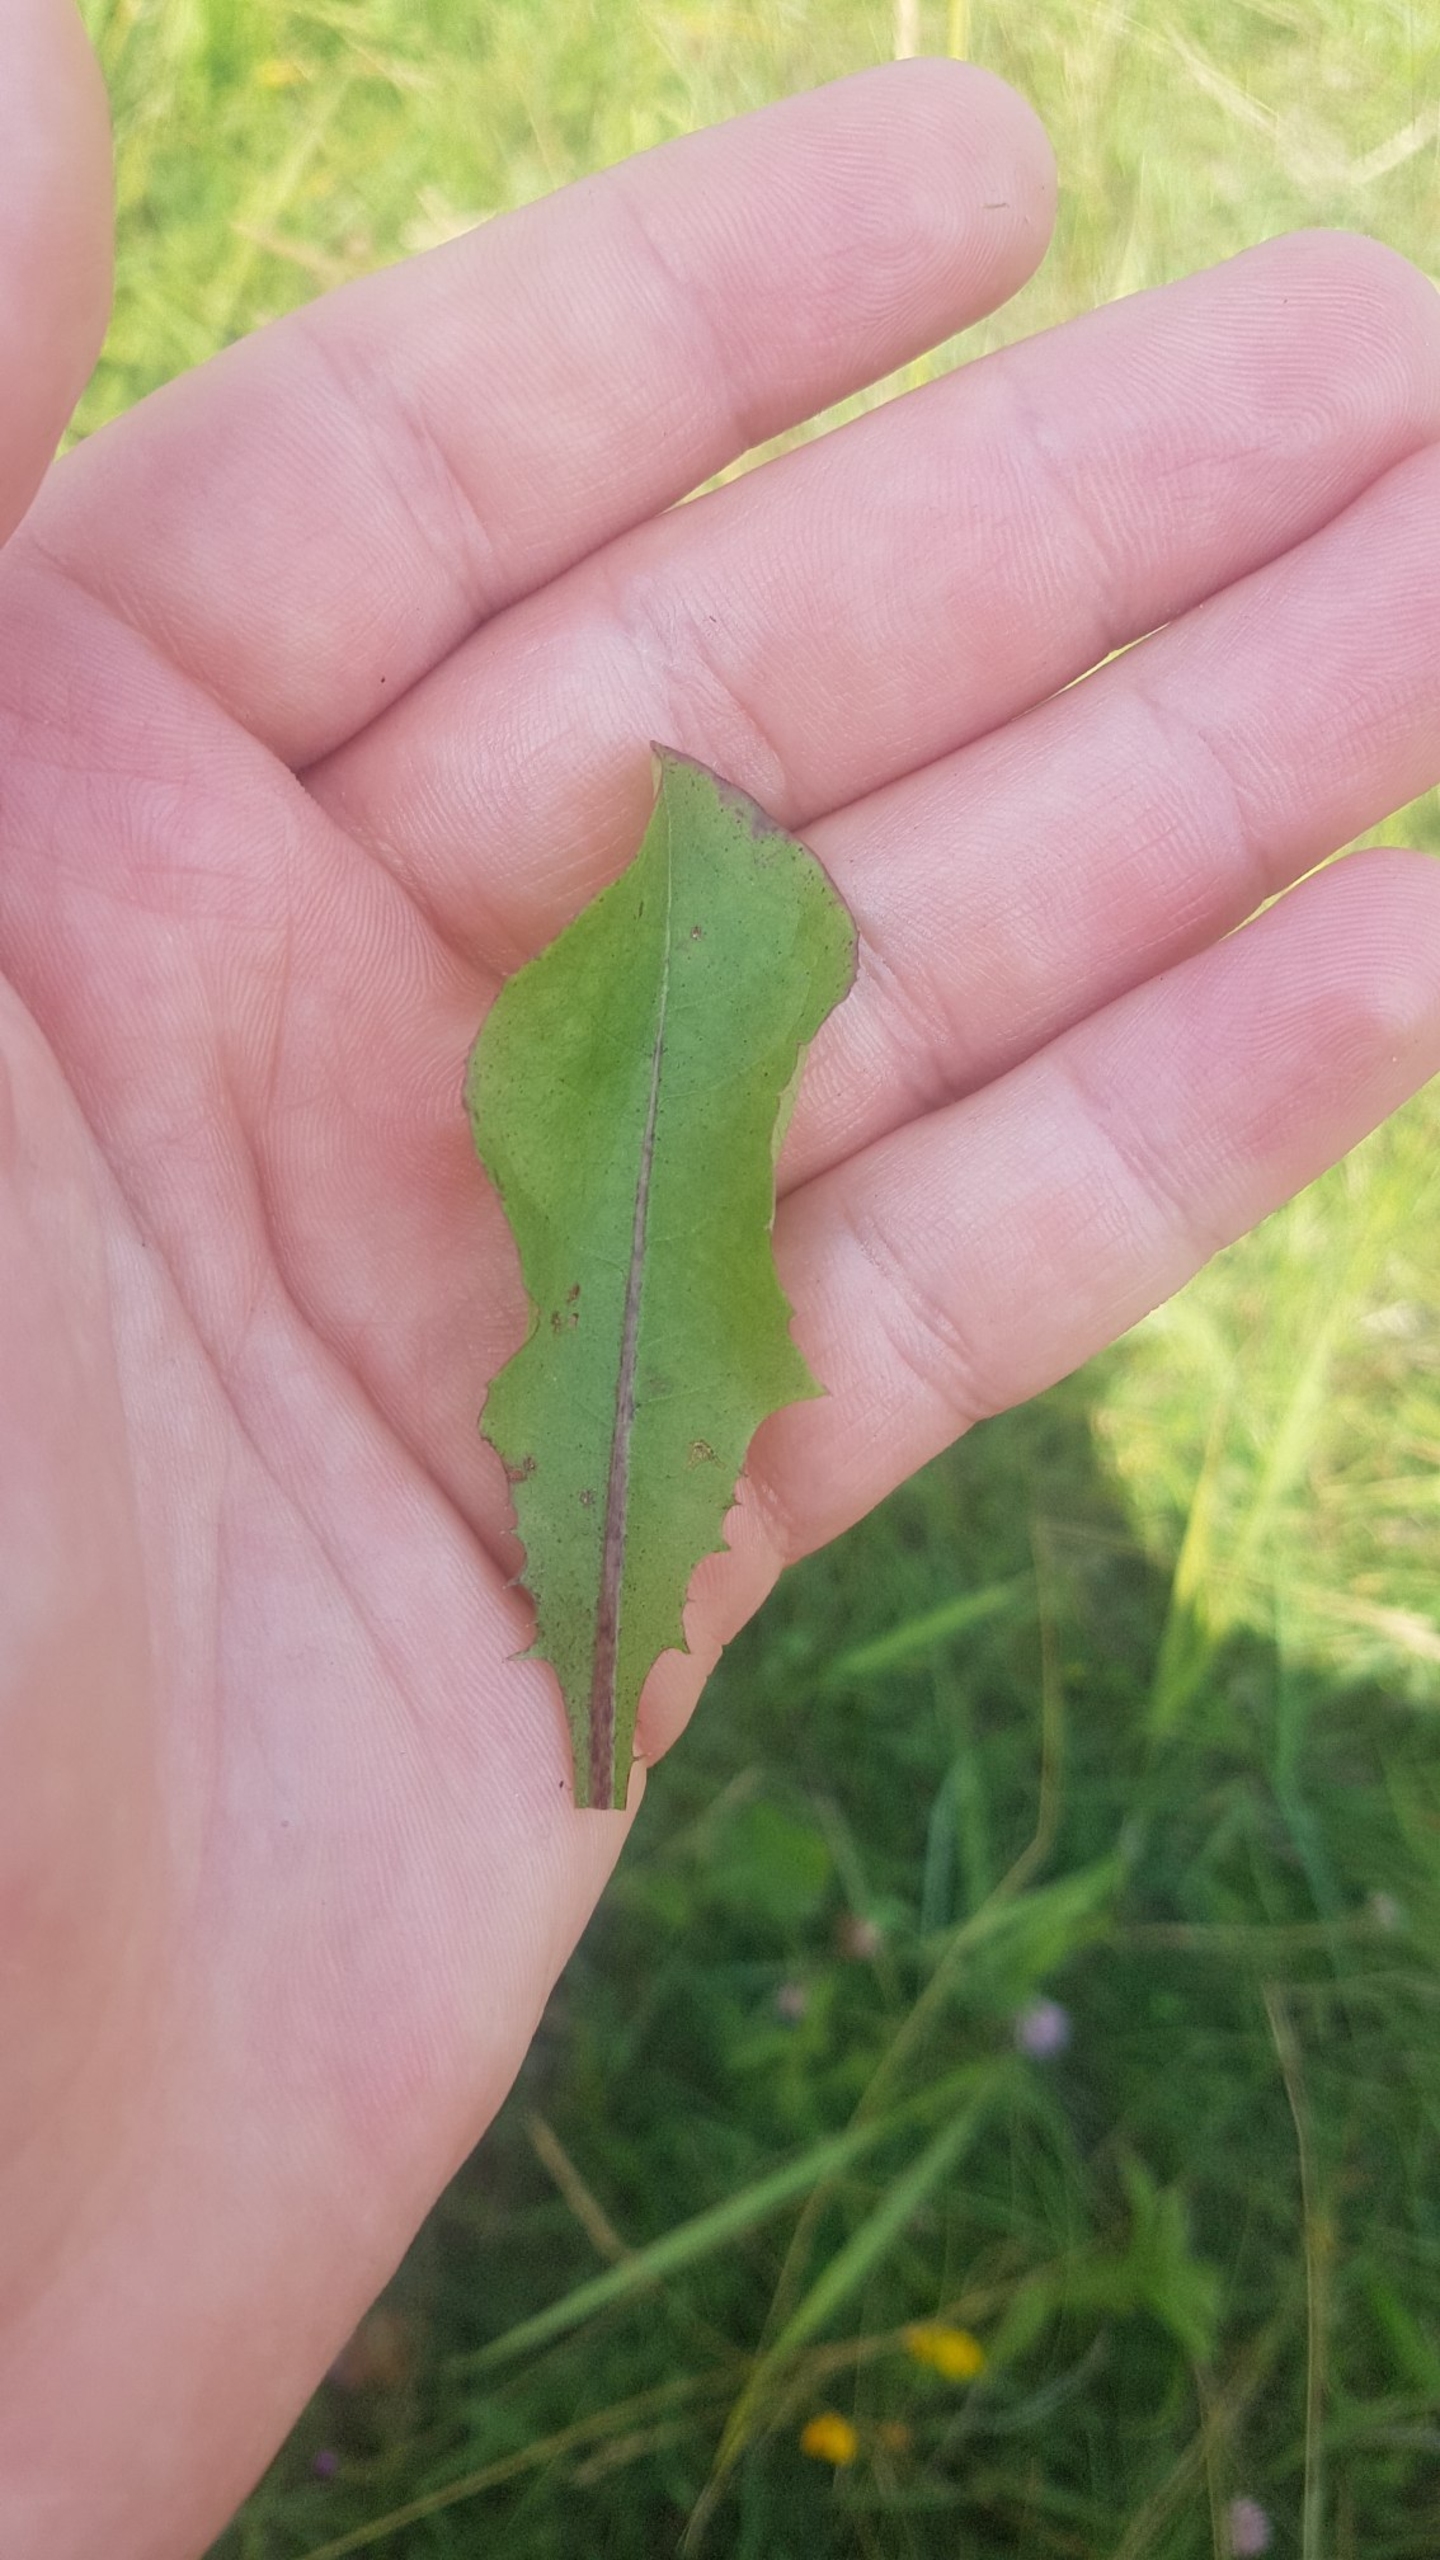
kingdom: Plantae
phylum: Tracheophyta
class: Magnoliopsida
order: Asterales
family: Asteraceae
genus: Taraxacum
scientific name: Taraxacum
